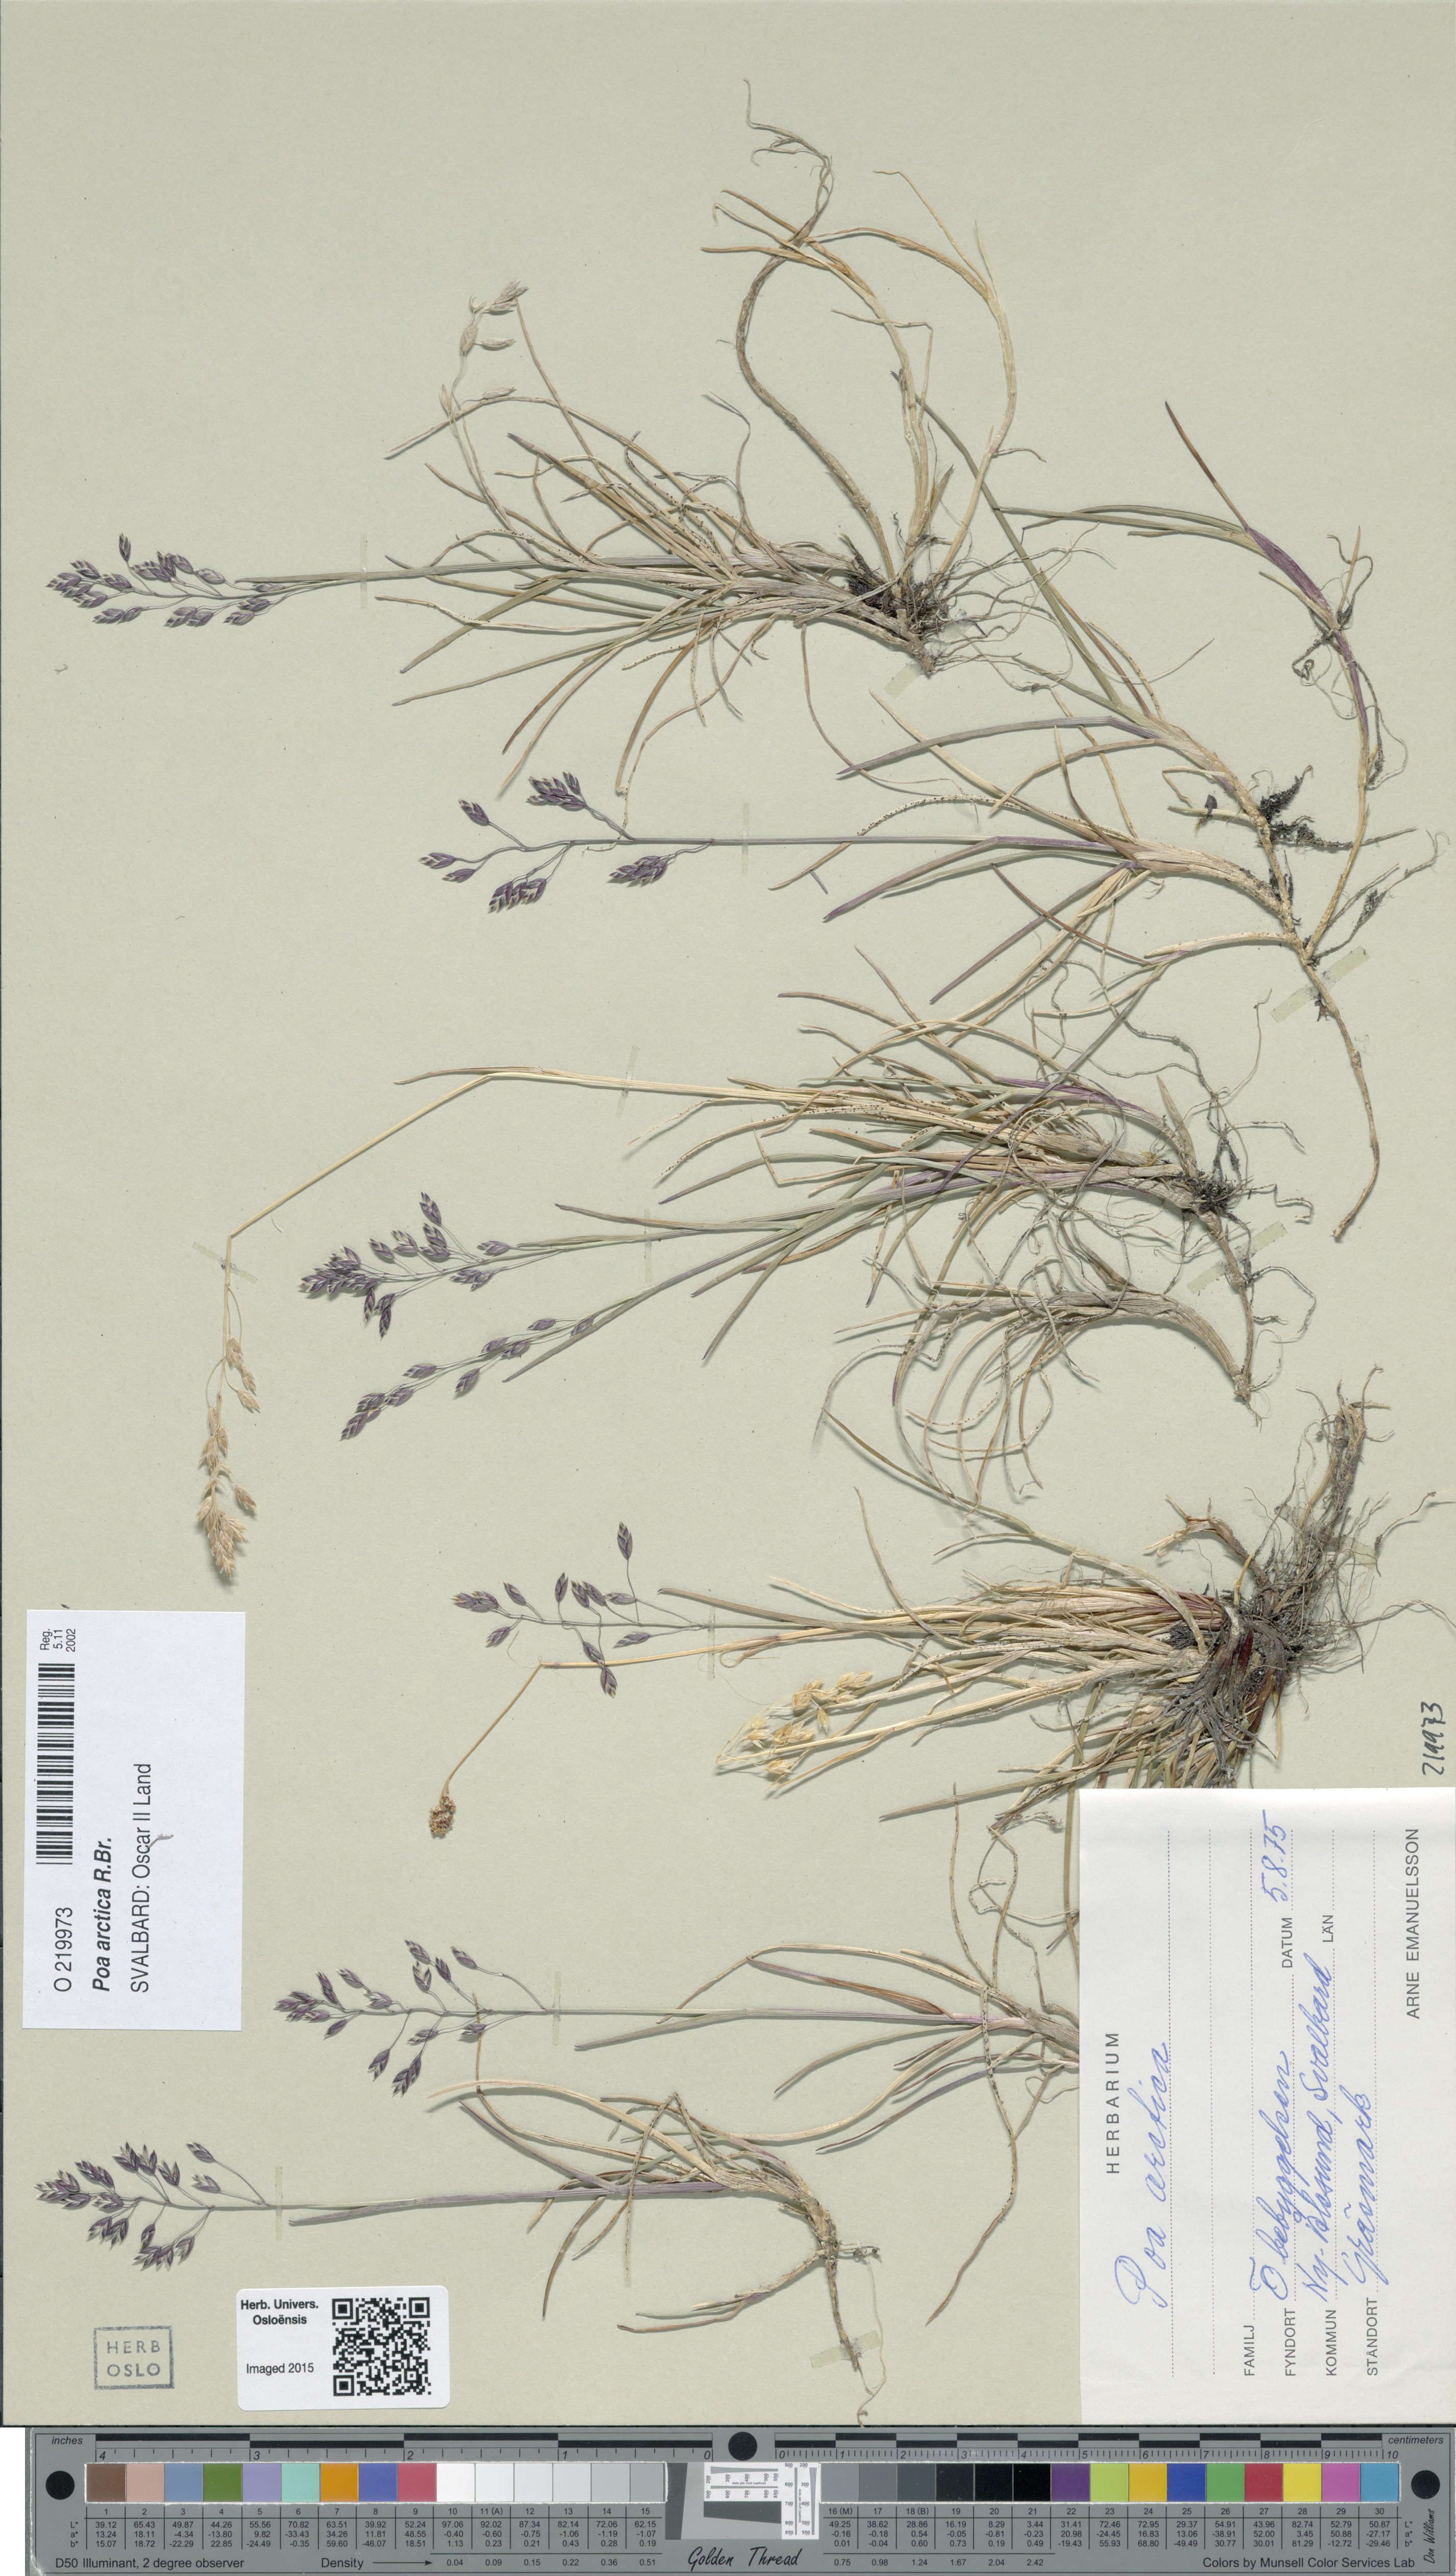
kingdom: Plantae
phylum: Tracheophyta
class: Liliopsida
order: Poales
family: Poaceae
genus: Poa
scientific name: Poa arctica
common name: Arctic bluegrass
